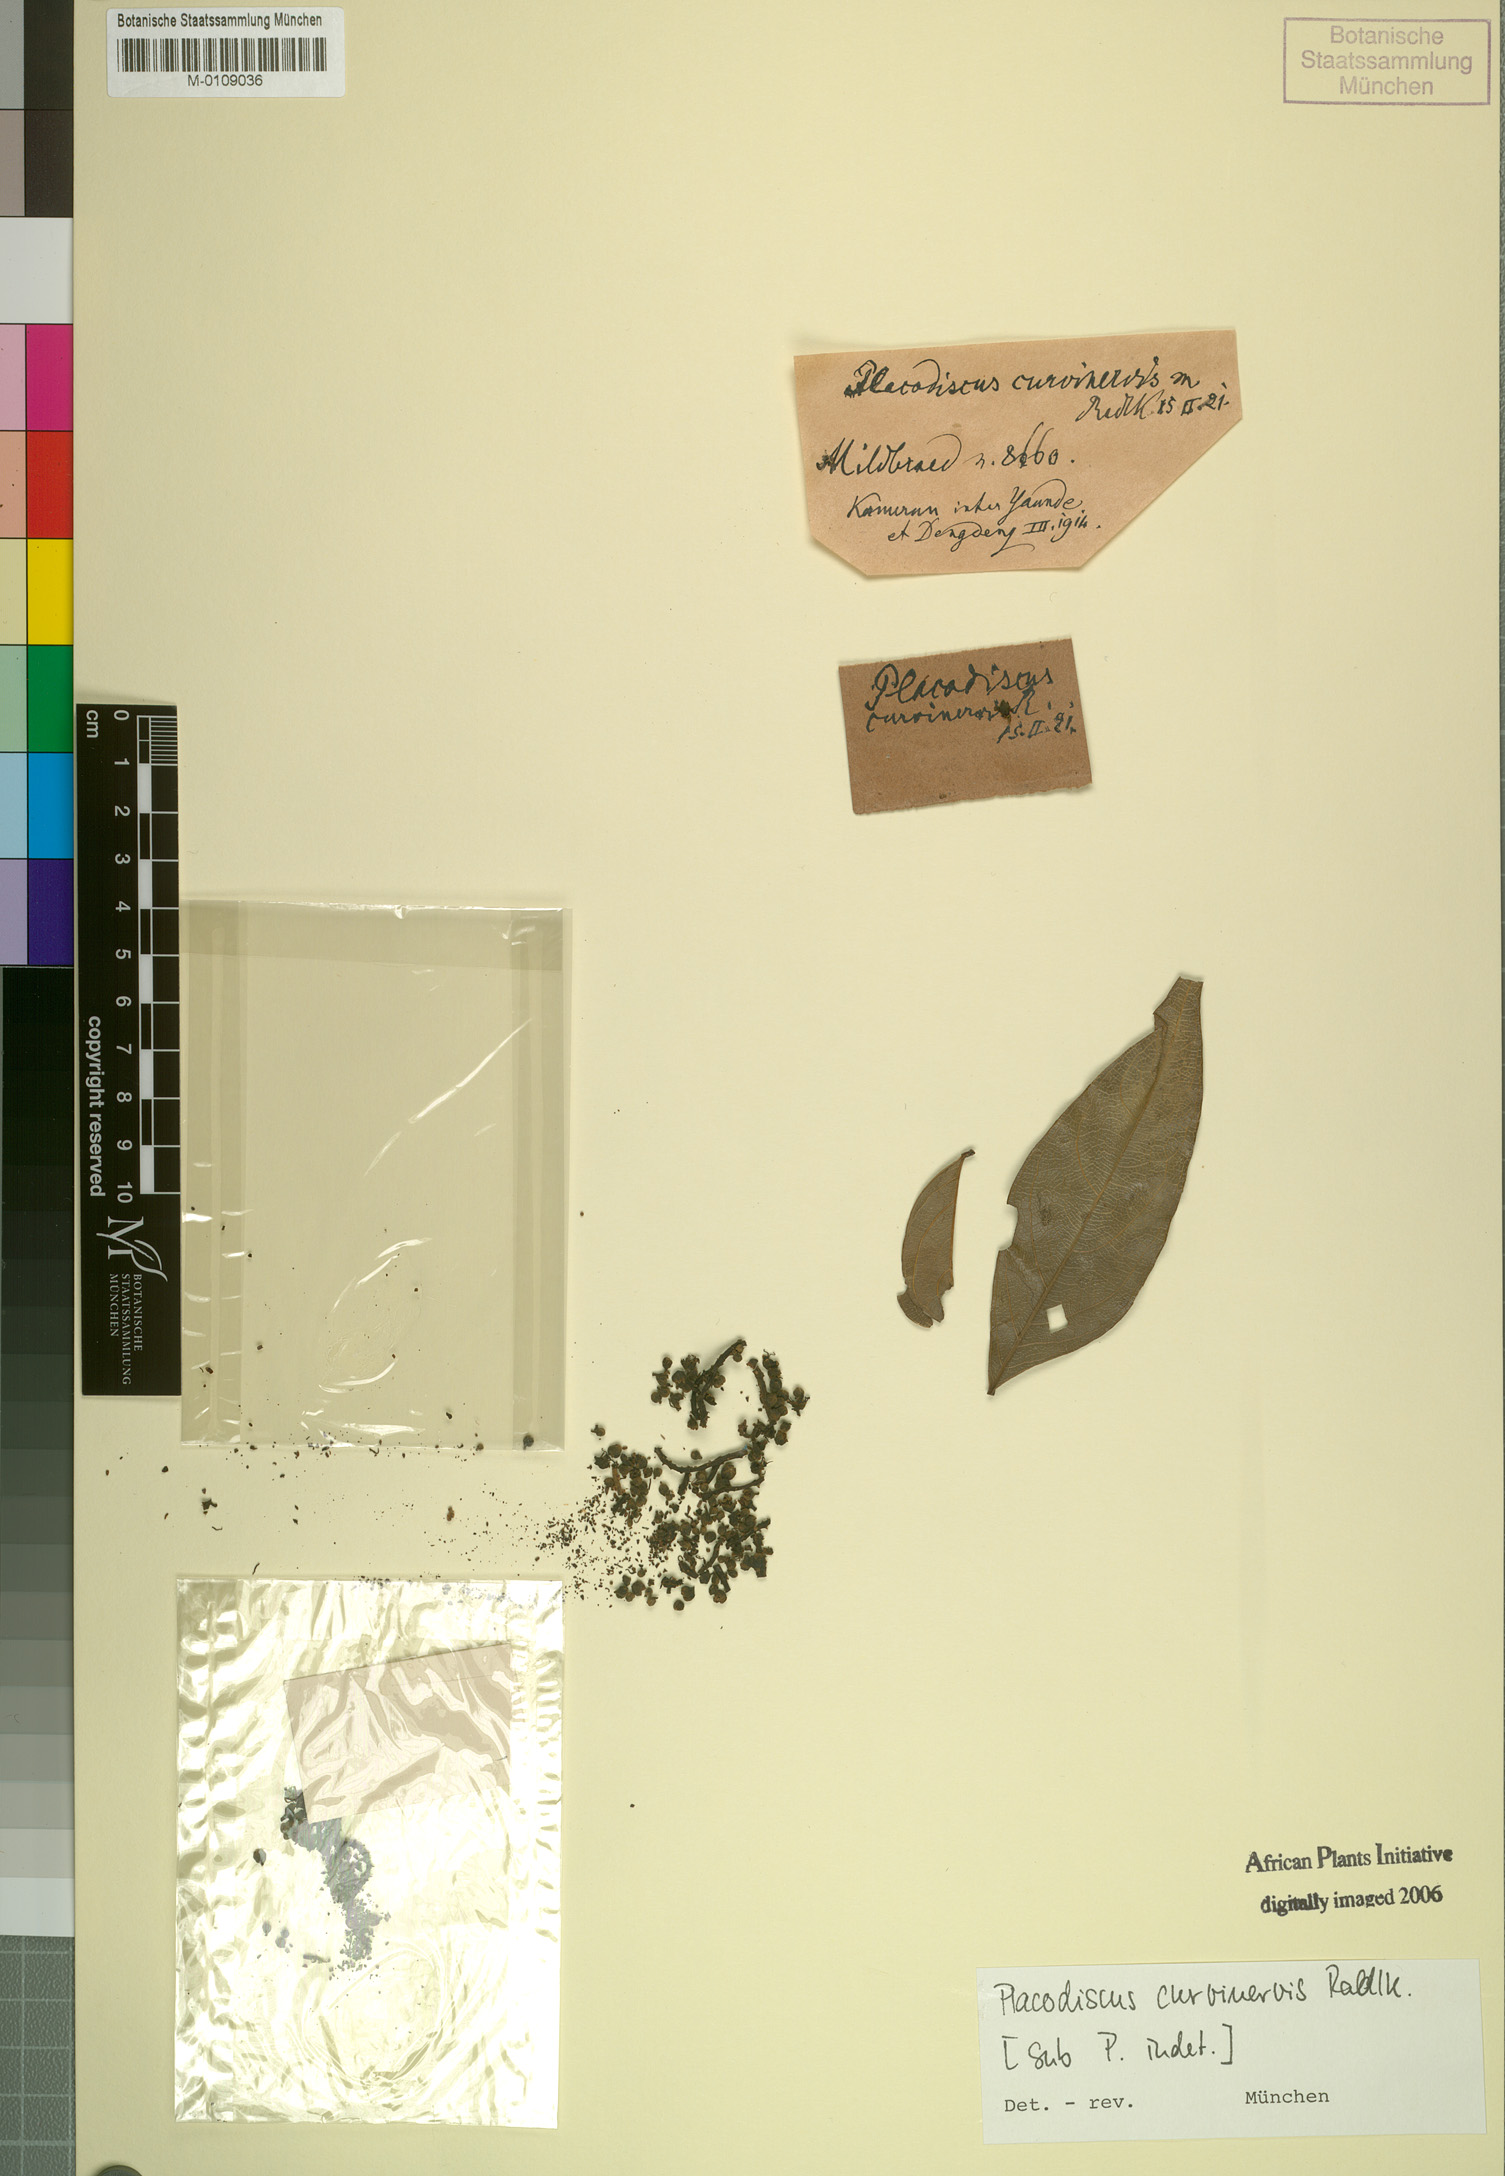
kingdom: Plantae
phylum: Tracheophyta
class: Magnoliopsida
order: Sapindales
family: Sapindaceae
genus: Placodiscus
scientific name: Placodiscus
